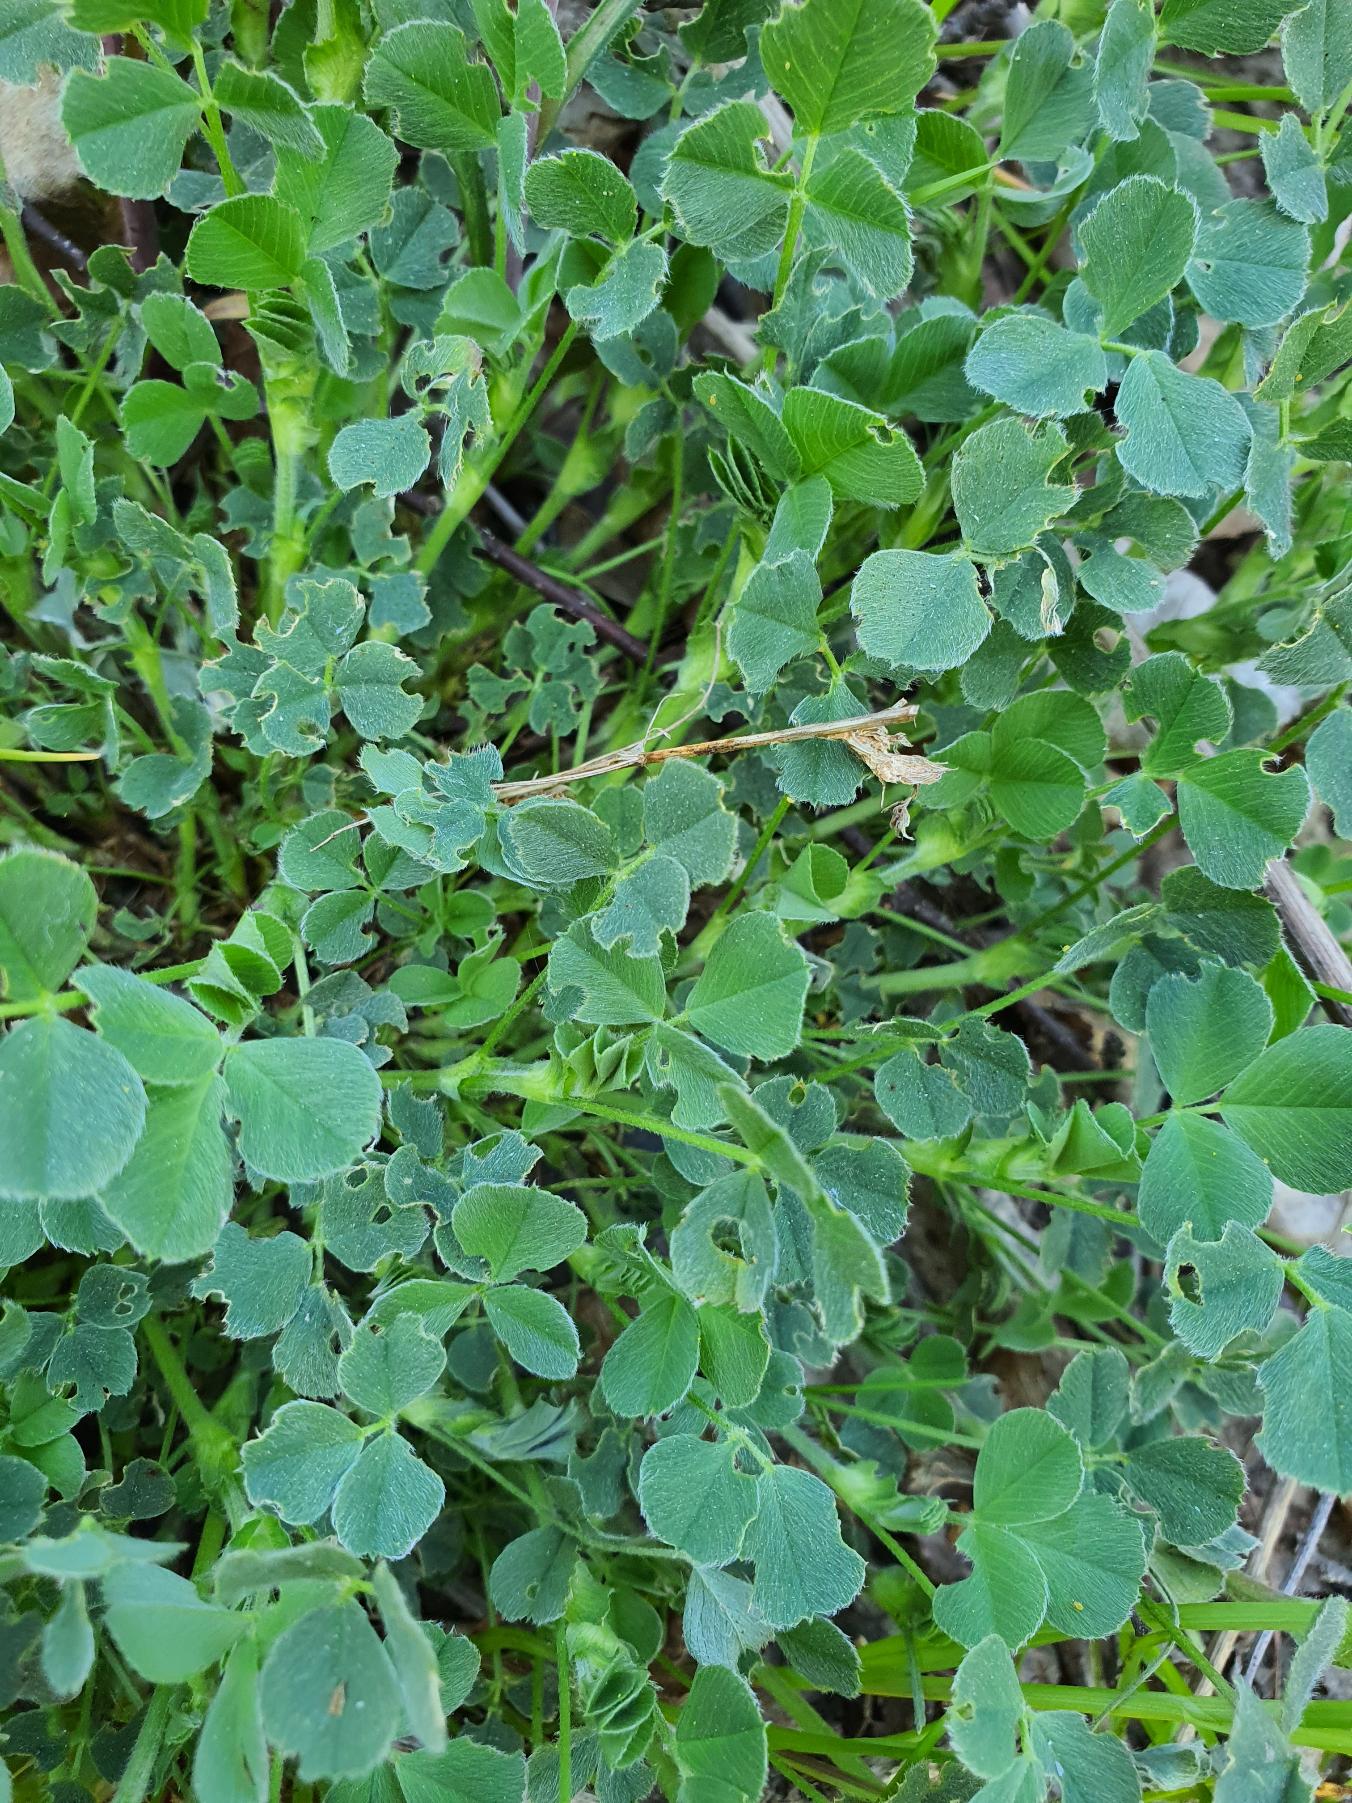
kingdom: Plantae
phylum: Tracheophyta
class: Magnoliopsida
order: Fabales
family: Fabaceae
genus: Medicago
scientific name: Medicago lupulina
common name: Humle-sneglebælg
